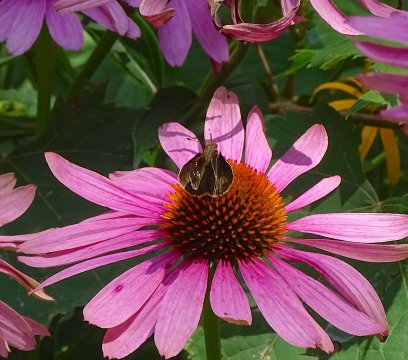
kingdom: Animalia
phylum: Arthropoda
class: Insecta
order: Lepidoptera
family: Hesperiidae
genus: Lon
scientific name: Lon zabulon
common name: Zabulon Skipper
